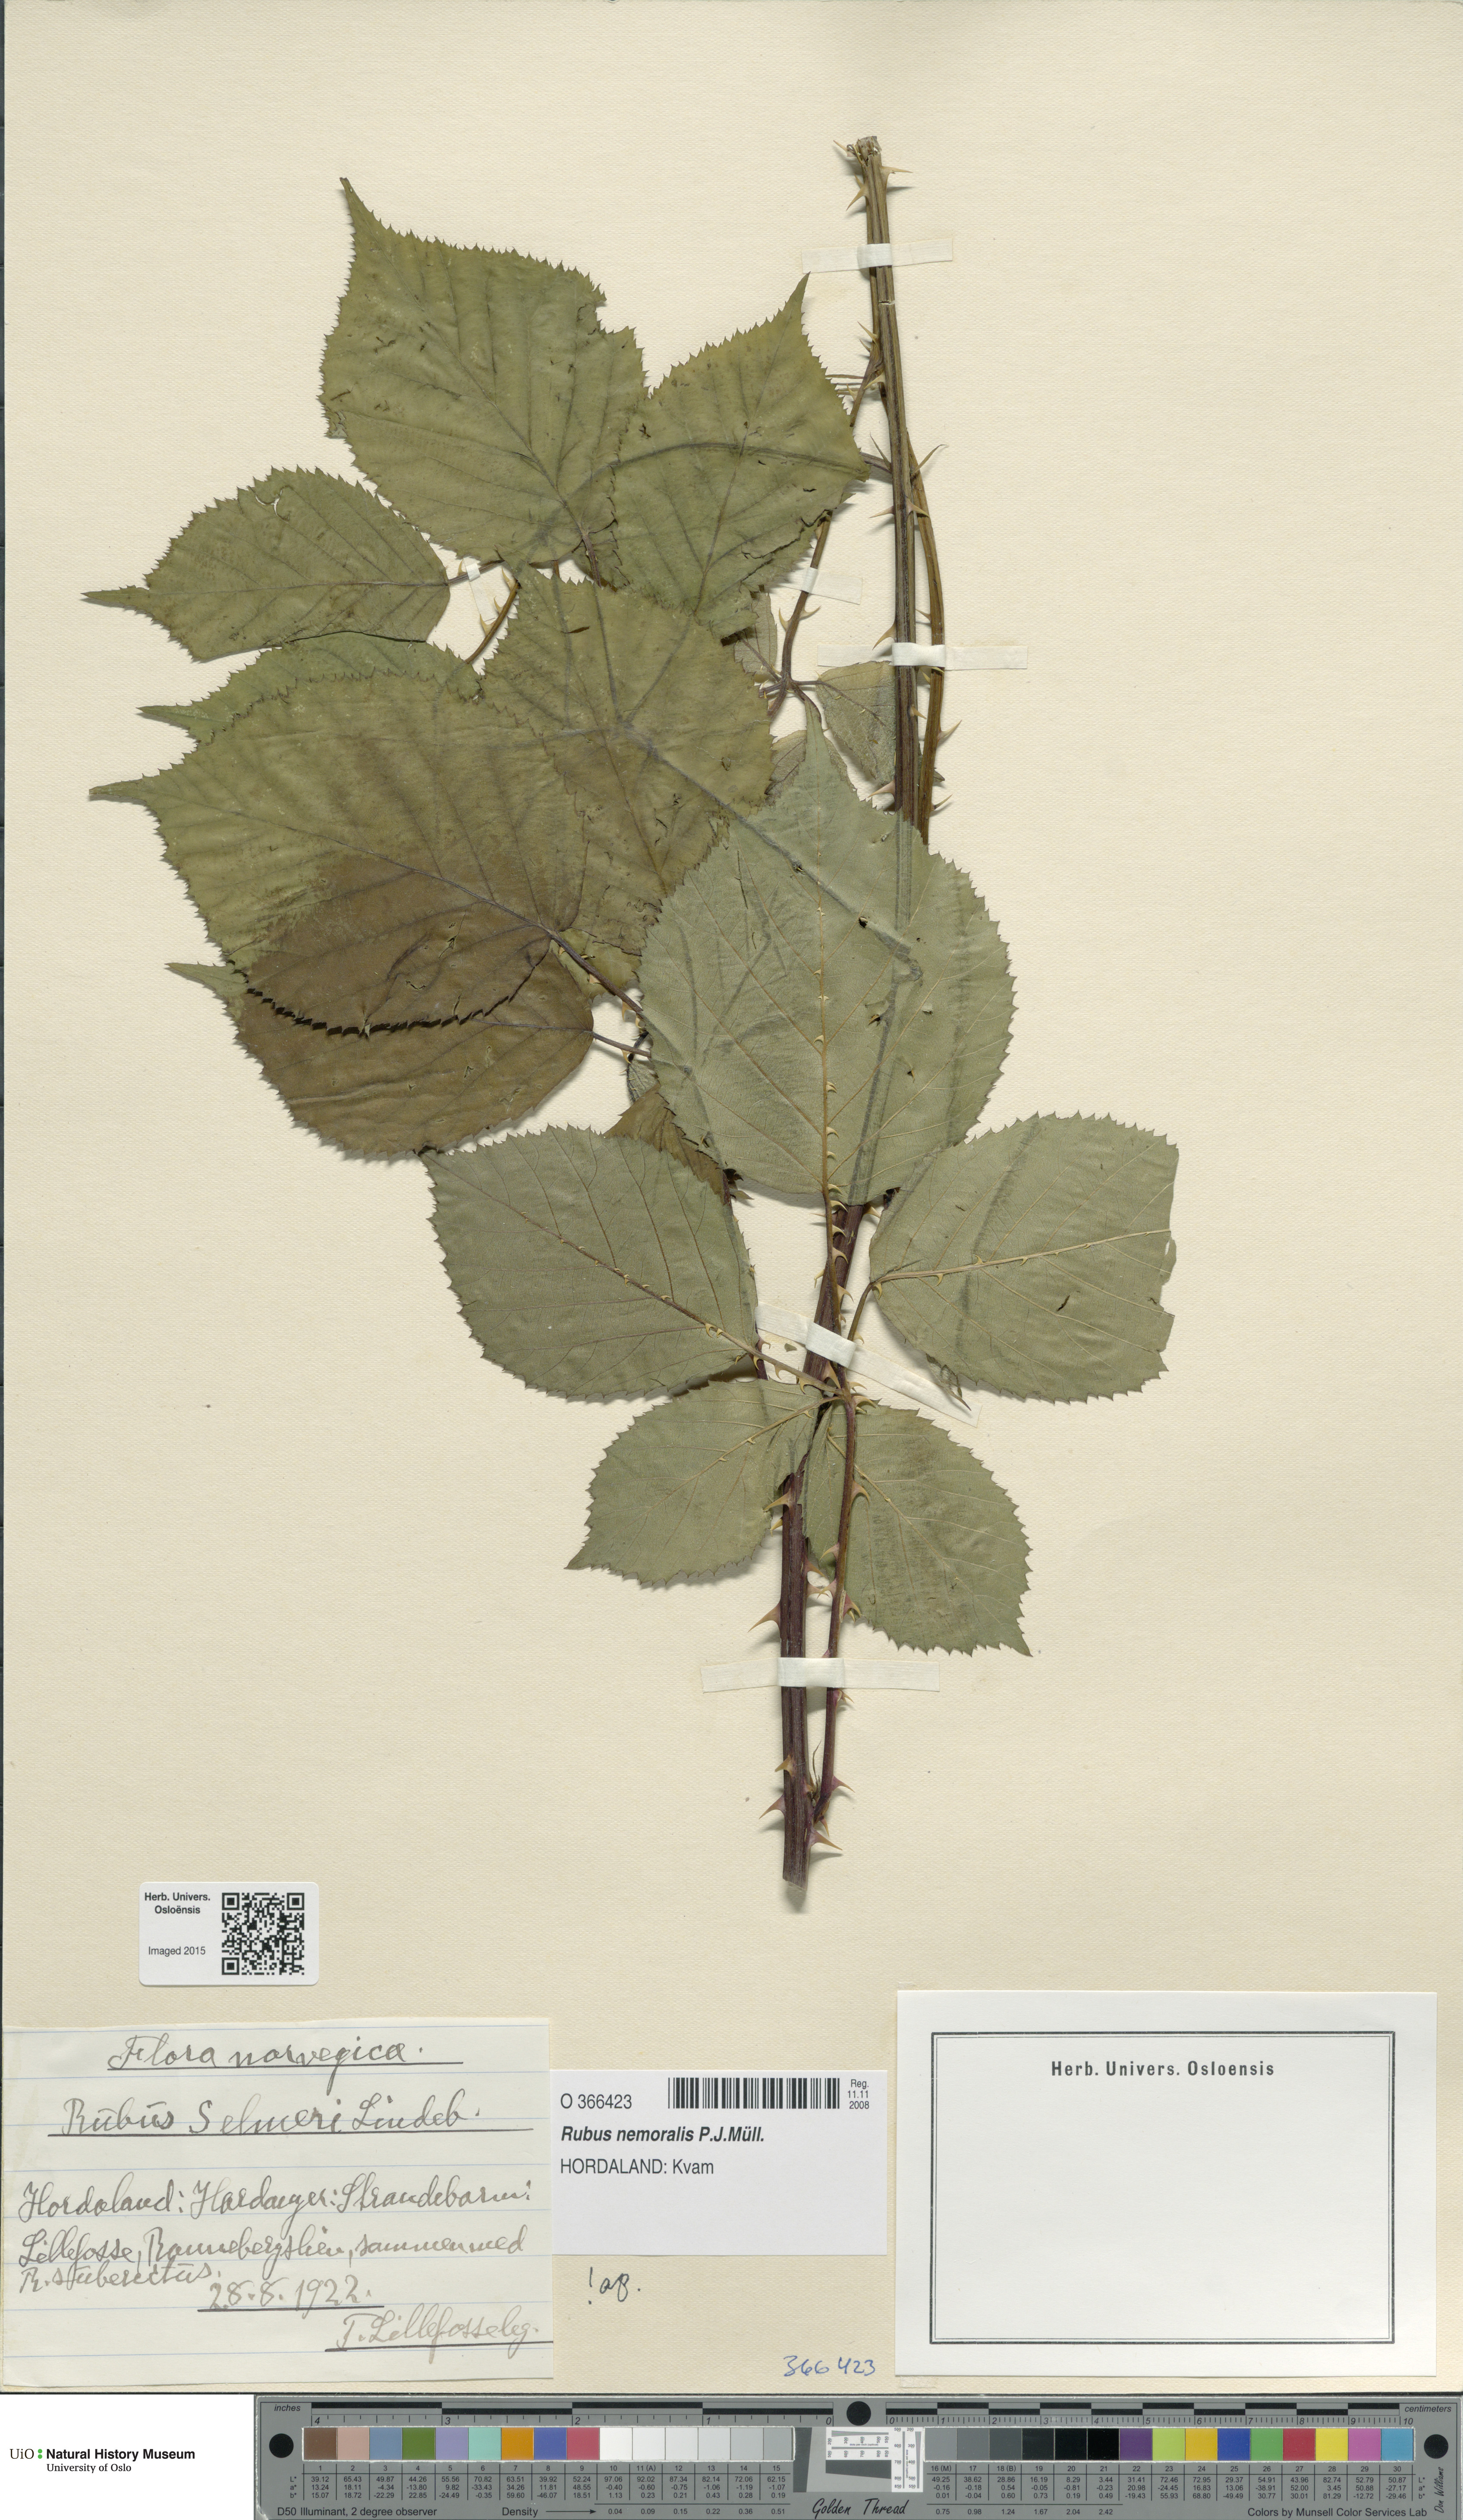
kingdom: Plantae
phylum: Tracheophyta
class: Magnoliopsida
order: Rosales
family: Rosaceae
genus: Rubus
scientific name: Rubus nemoralis
